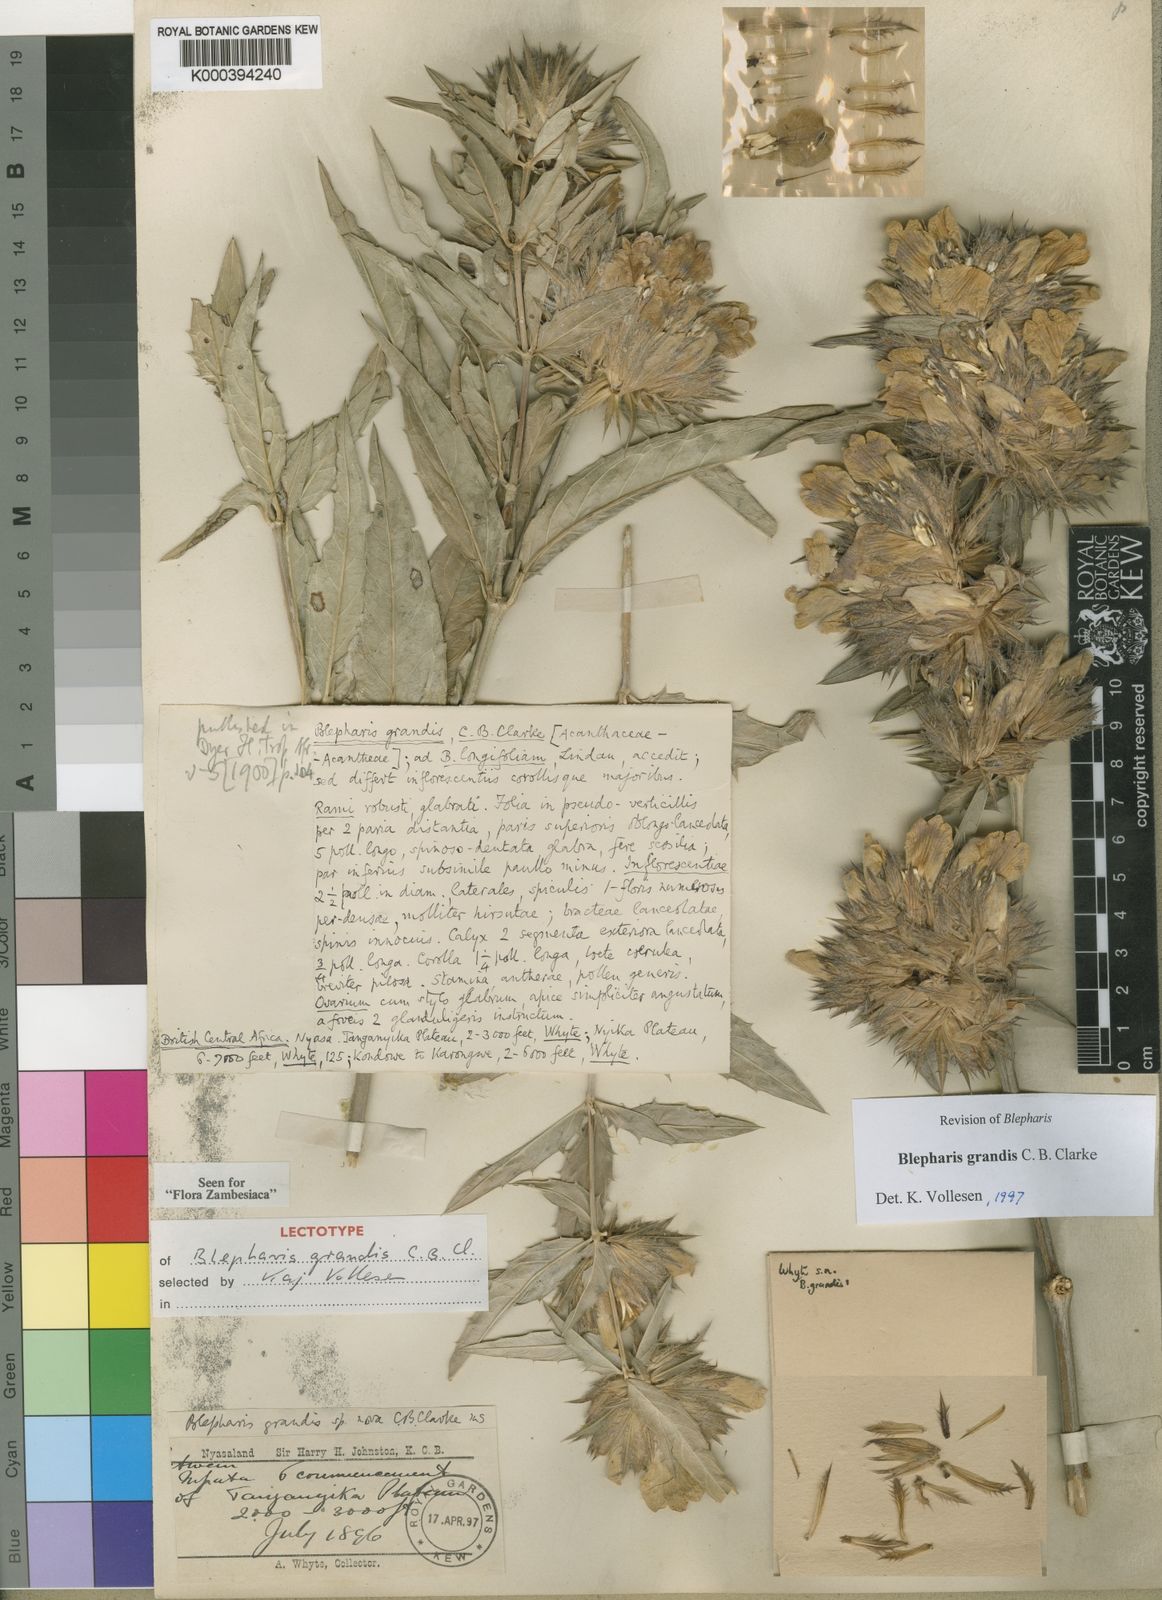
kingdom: Plantae
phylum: Tracheophyta
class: Magnoliopsida
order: Lamiales
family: Acanthaceae
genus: Blepharis
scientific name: Blepharis grandis
